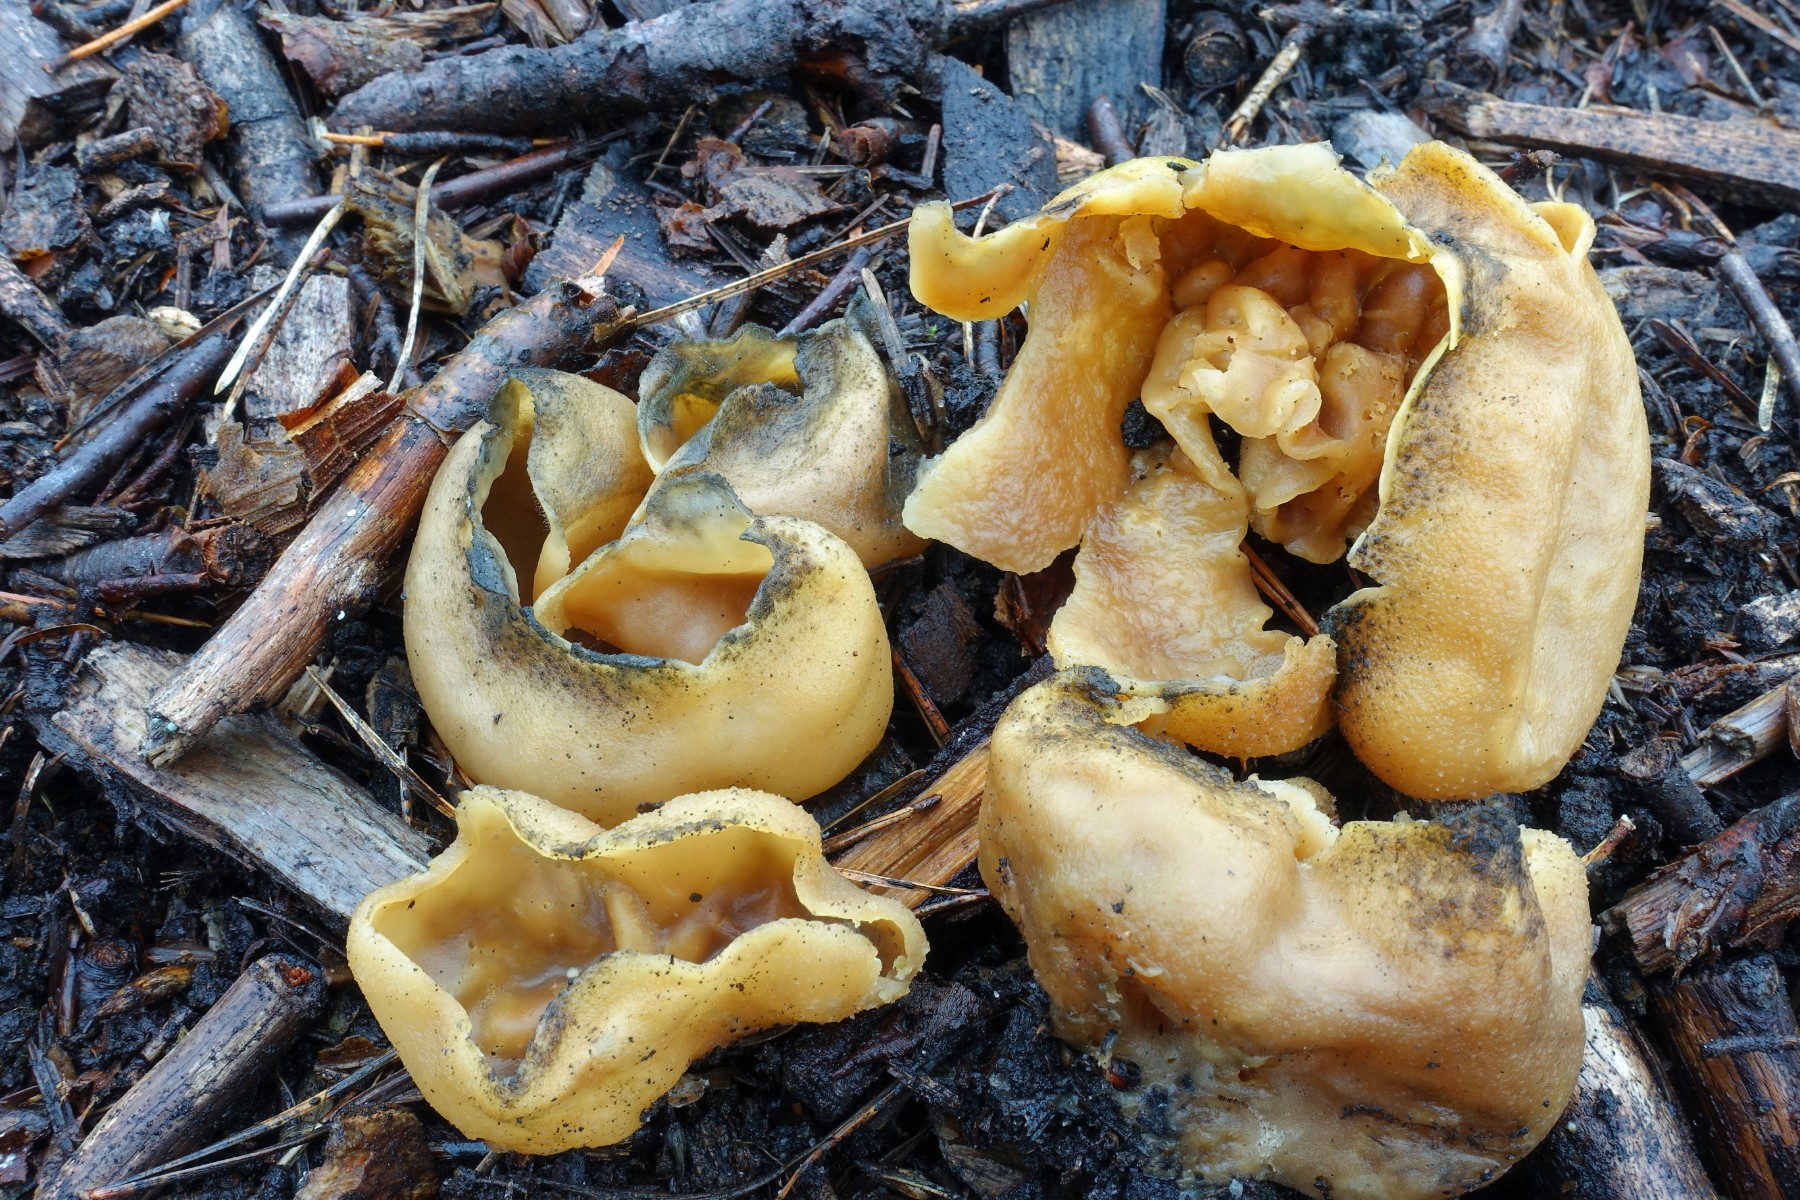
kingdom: Fungi
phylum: Ascomycota
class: Pezizomycetes
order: Pezizales
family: Pezizaceae
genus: Peziza
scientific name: Peziza vesiculosa
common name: blære-bægersvamp
